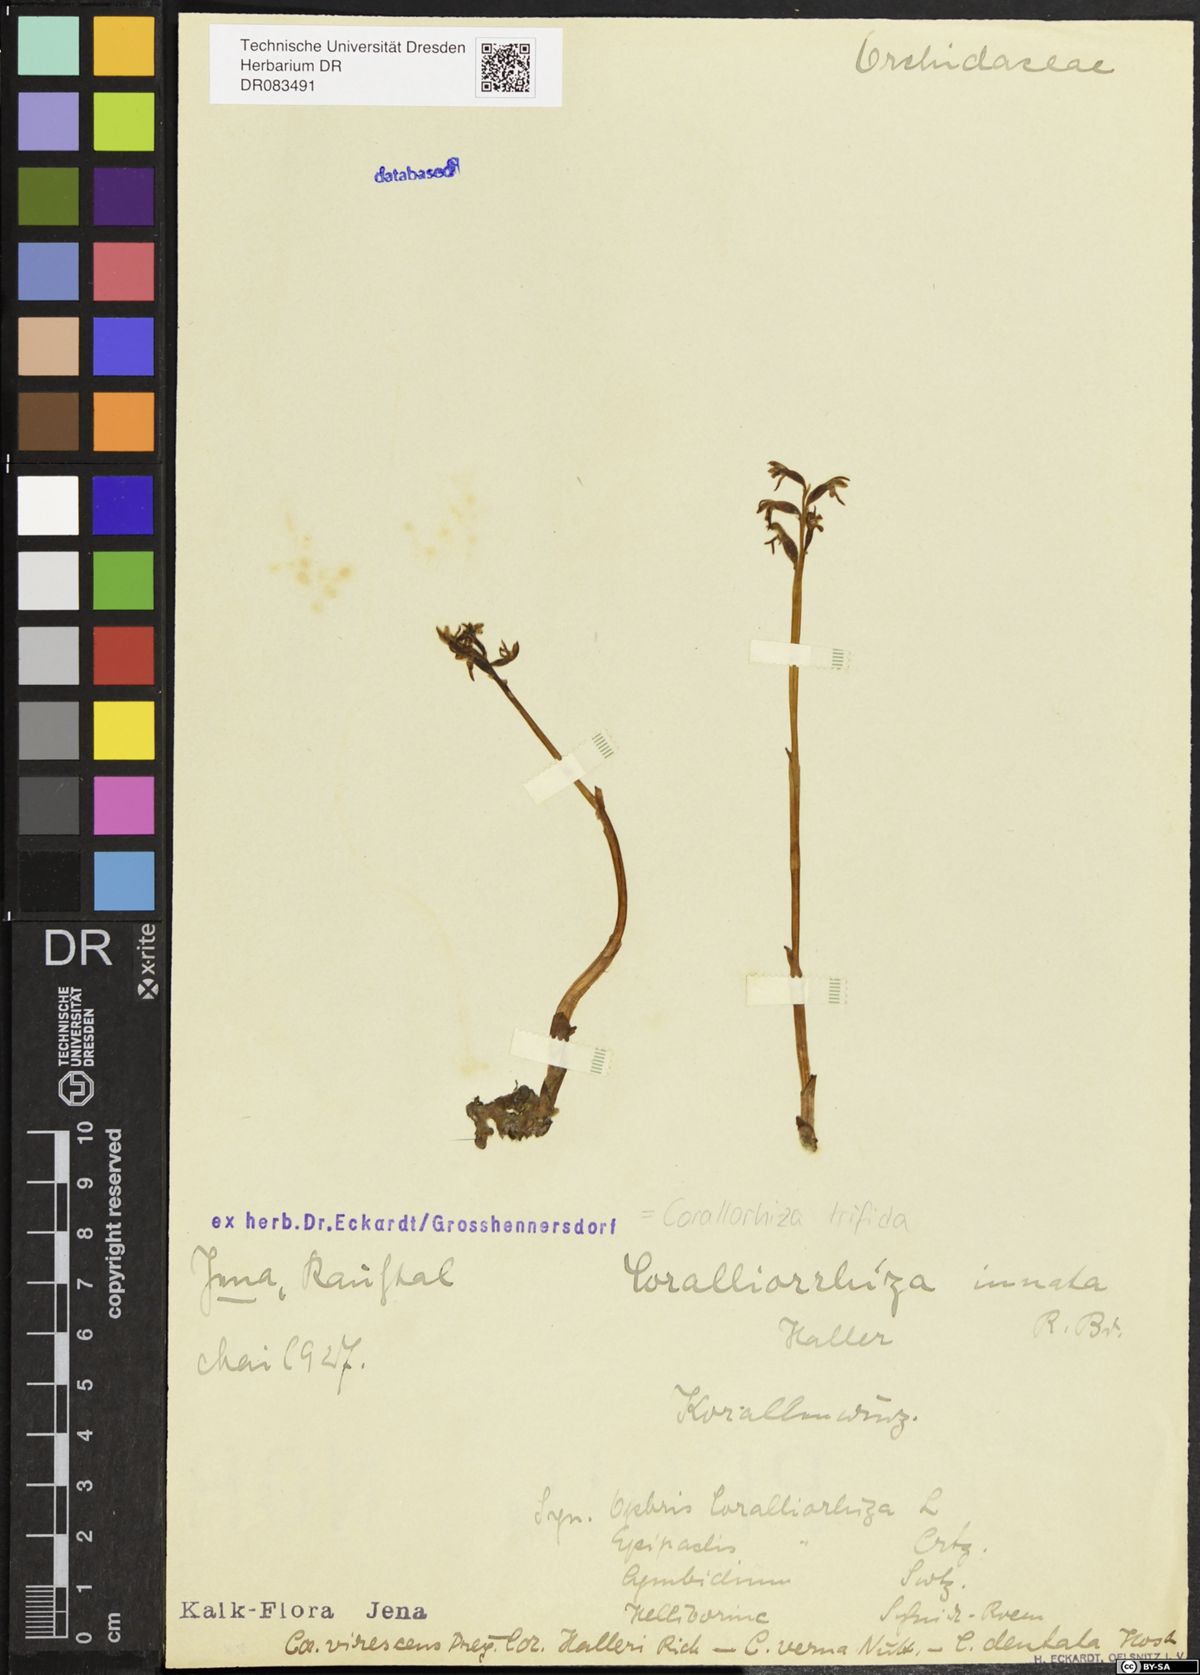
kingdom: Plantae
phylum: Tracheophyta
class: Liliopsida
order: Asparagales
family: Orchidaceae
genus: Corallorhiza
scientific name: Corallorhiza trifida
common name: Yellow coralroot
